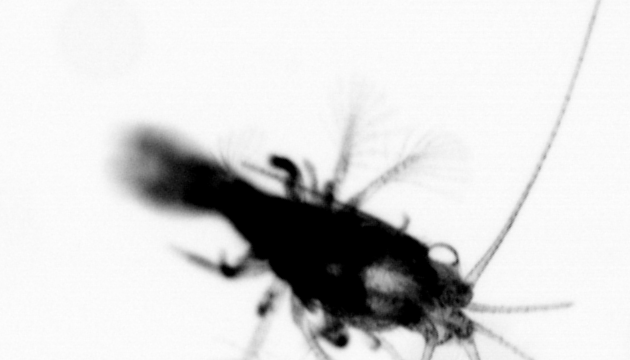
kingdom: Animalia
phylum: Arthropoda
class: Malacostraca
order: Decapoda
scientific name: Decapoda
